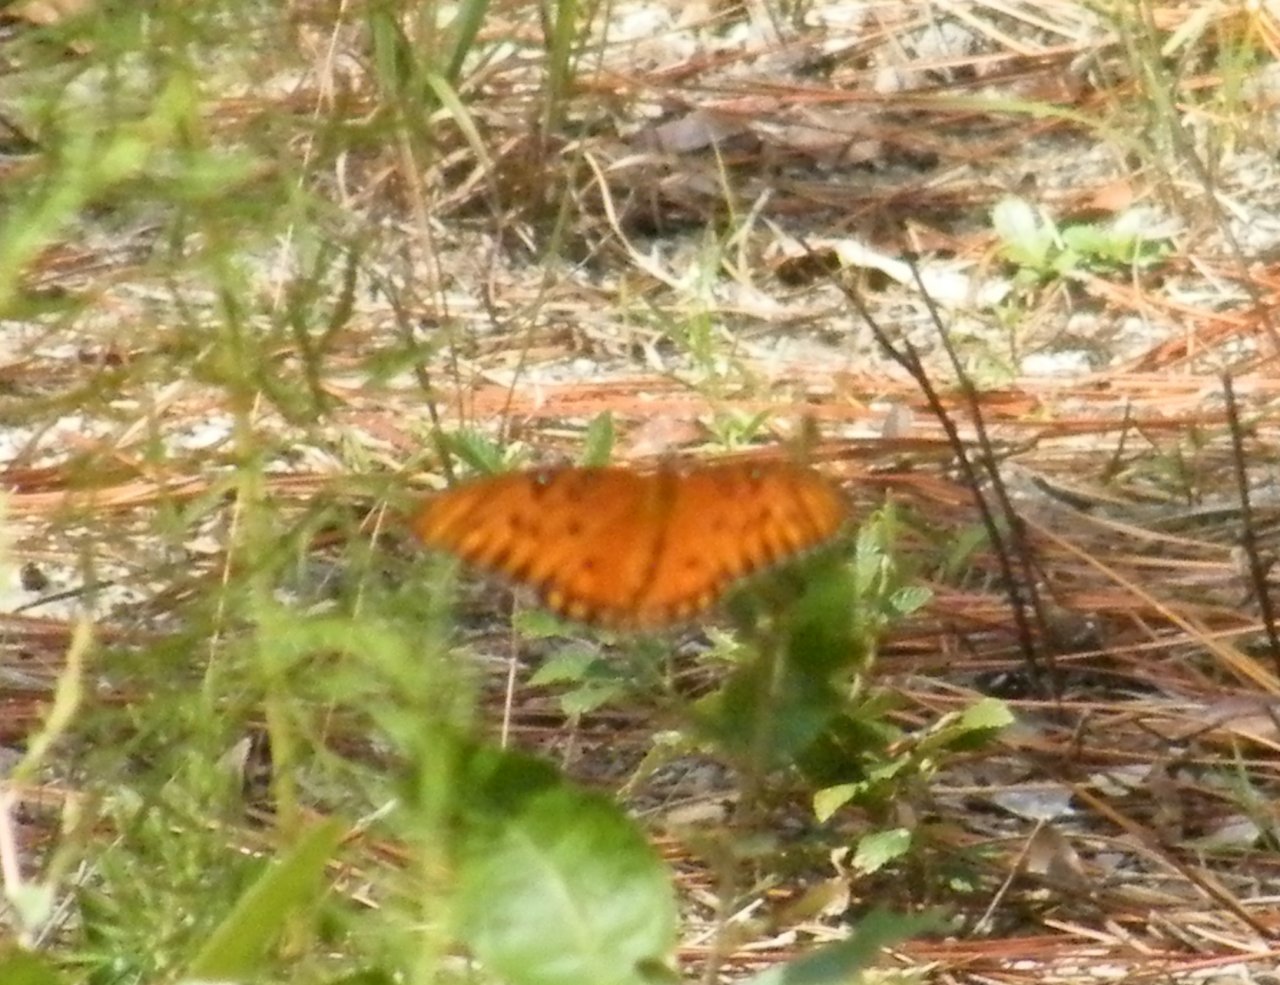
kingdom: Animalia
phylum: Arthropoda
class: Insecta
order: Lepidoptera
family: Nymphalidae
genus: Dione
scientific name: Dione vanillae
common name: Gulf Fritillary
